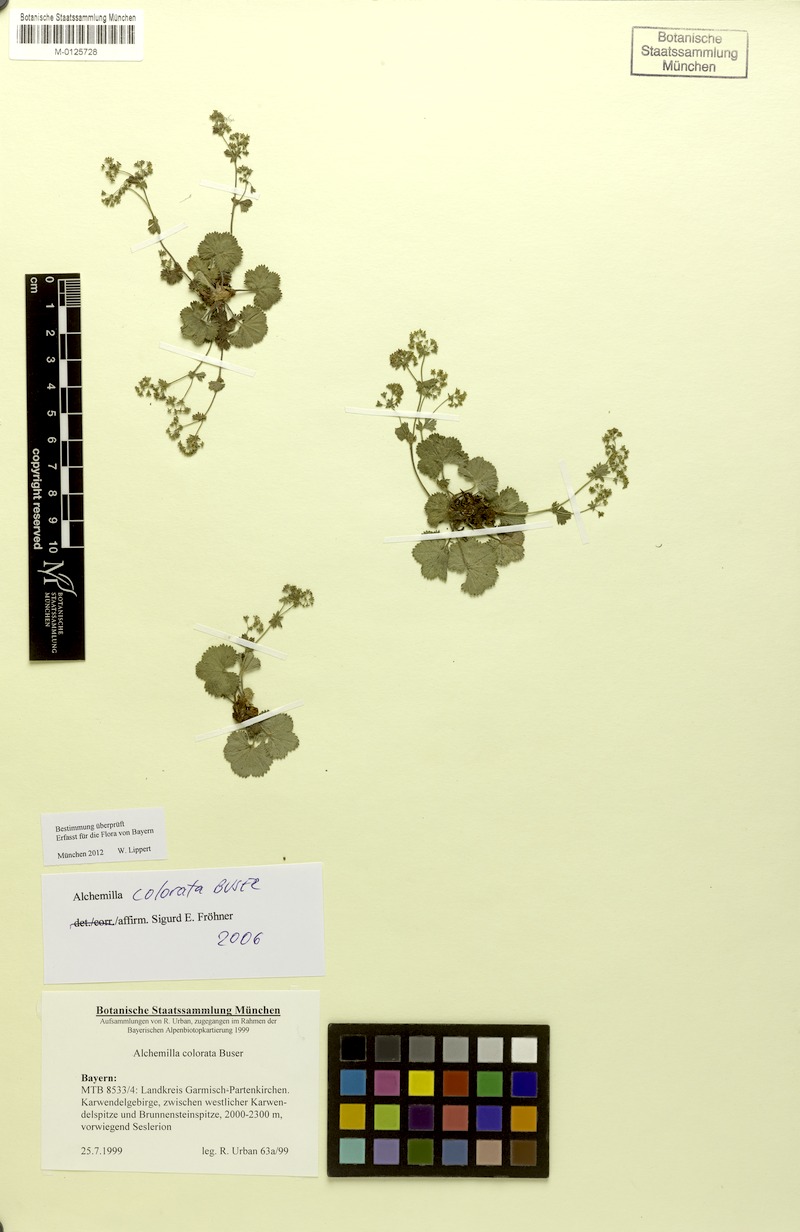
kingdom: Plantae
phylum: Tracheophyta
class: Magnoliopsida
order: Rosales
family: Rosaceae
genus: Alchemilla
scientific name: Alchemilla colorata
